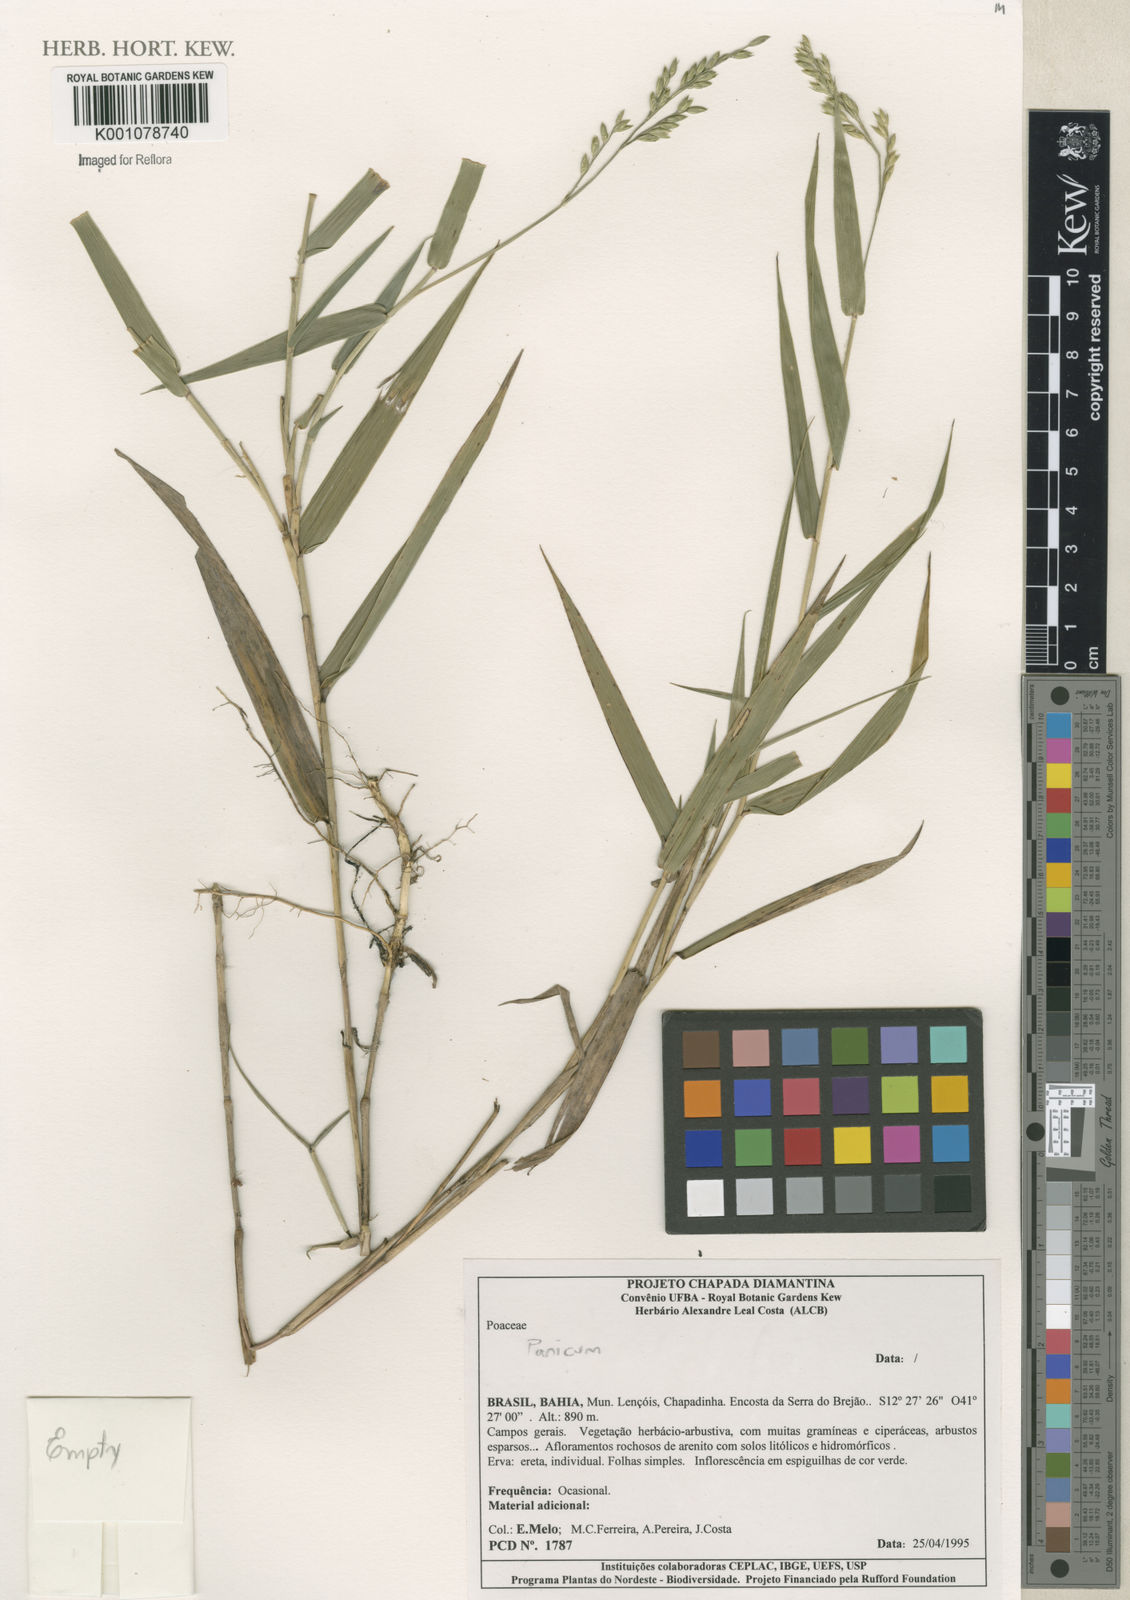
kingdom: Plantae
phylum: Tracheophyta
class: Liliopsida
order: Poales
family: Poaceae
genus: Panicum
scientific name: Panicum
